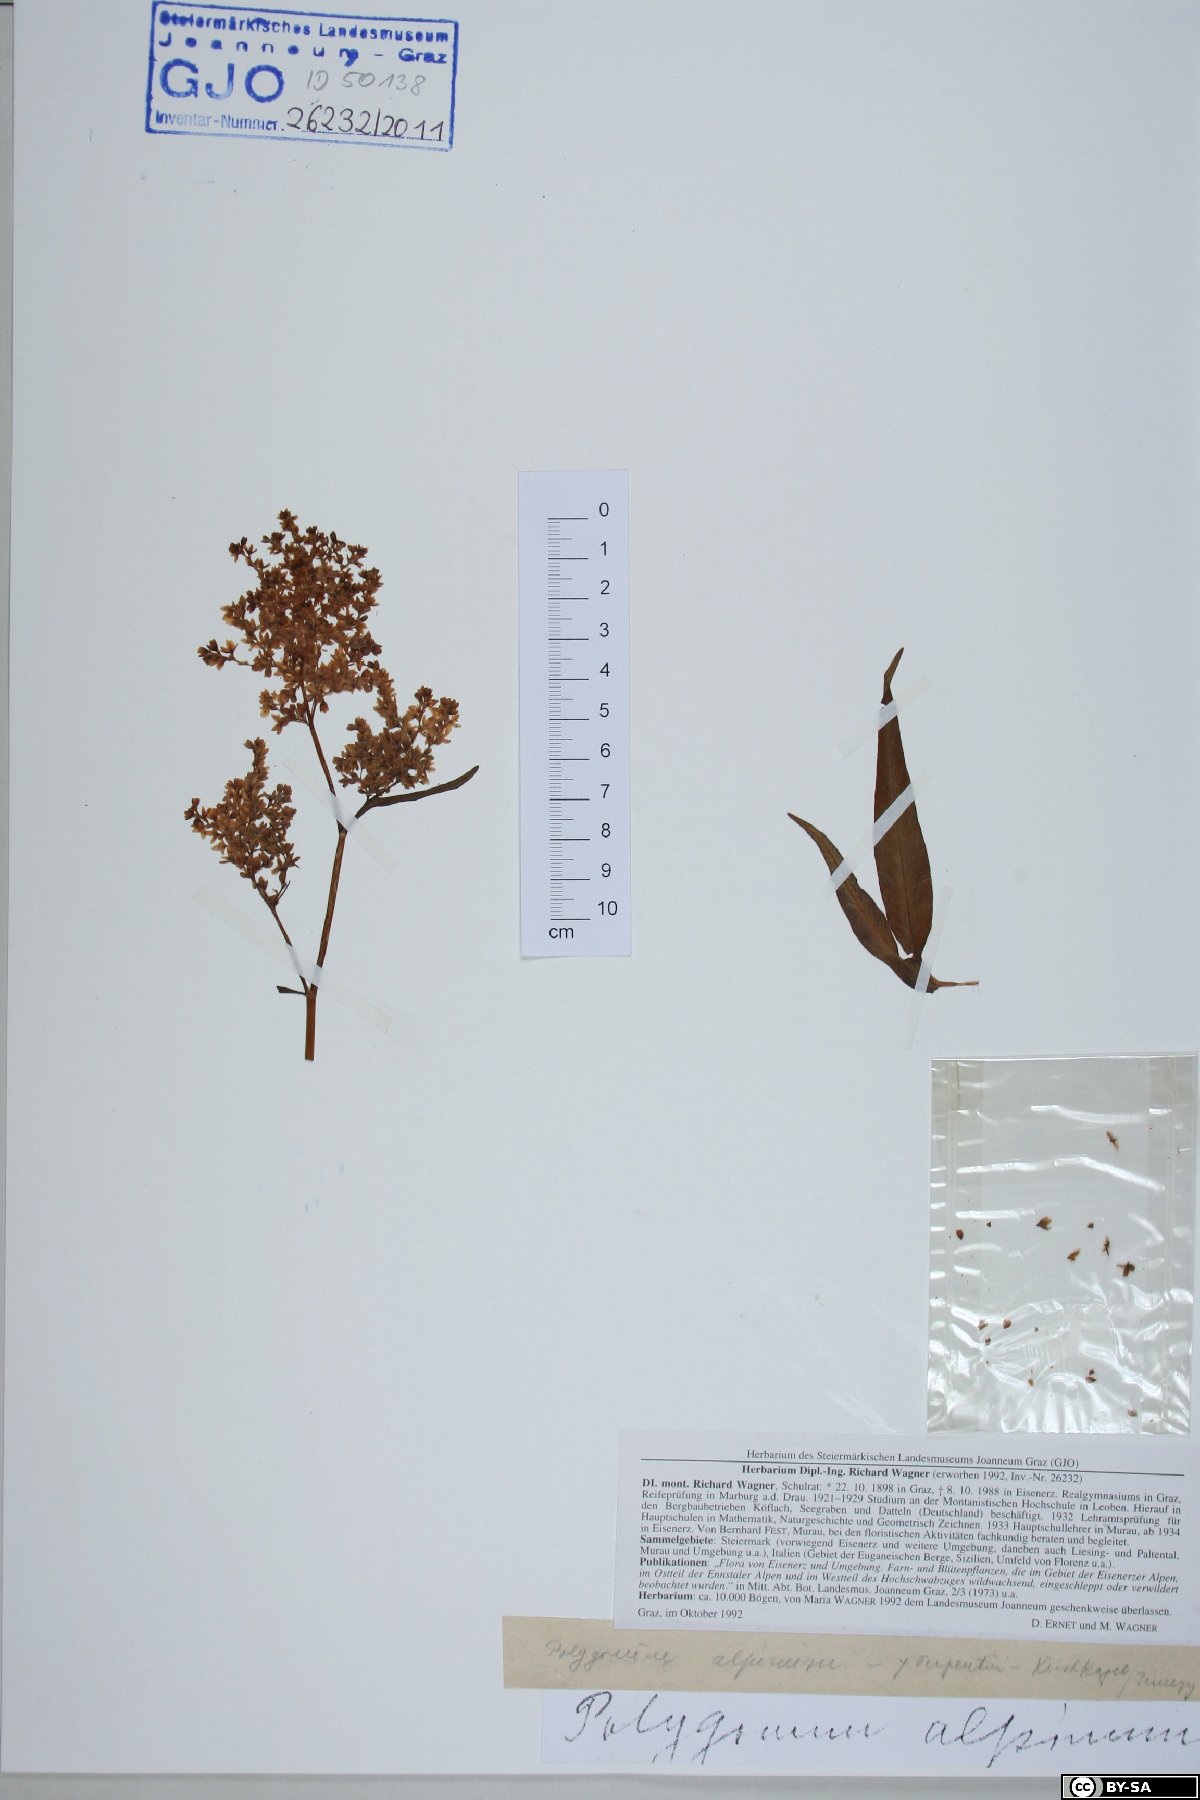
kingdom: Plantae
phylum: Tracheophyta
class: Magnoliopsida
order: Caryophyllales
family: Polygonaceae
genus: Koenigia
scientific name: Koenigia alpina
